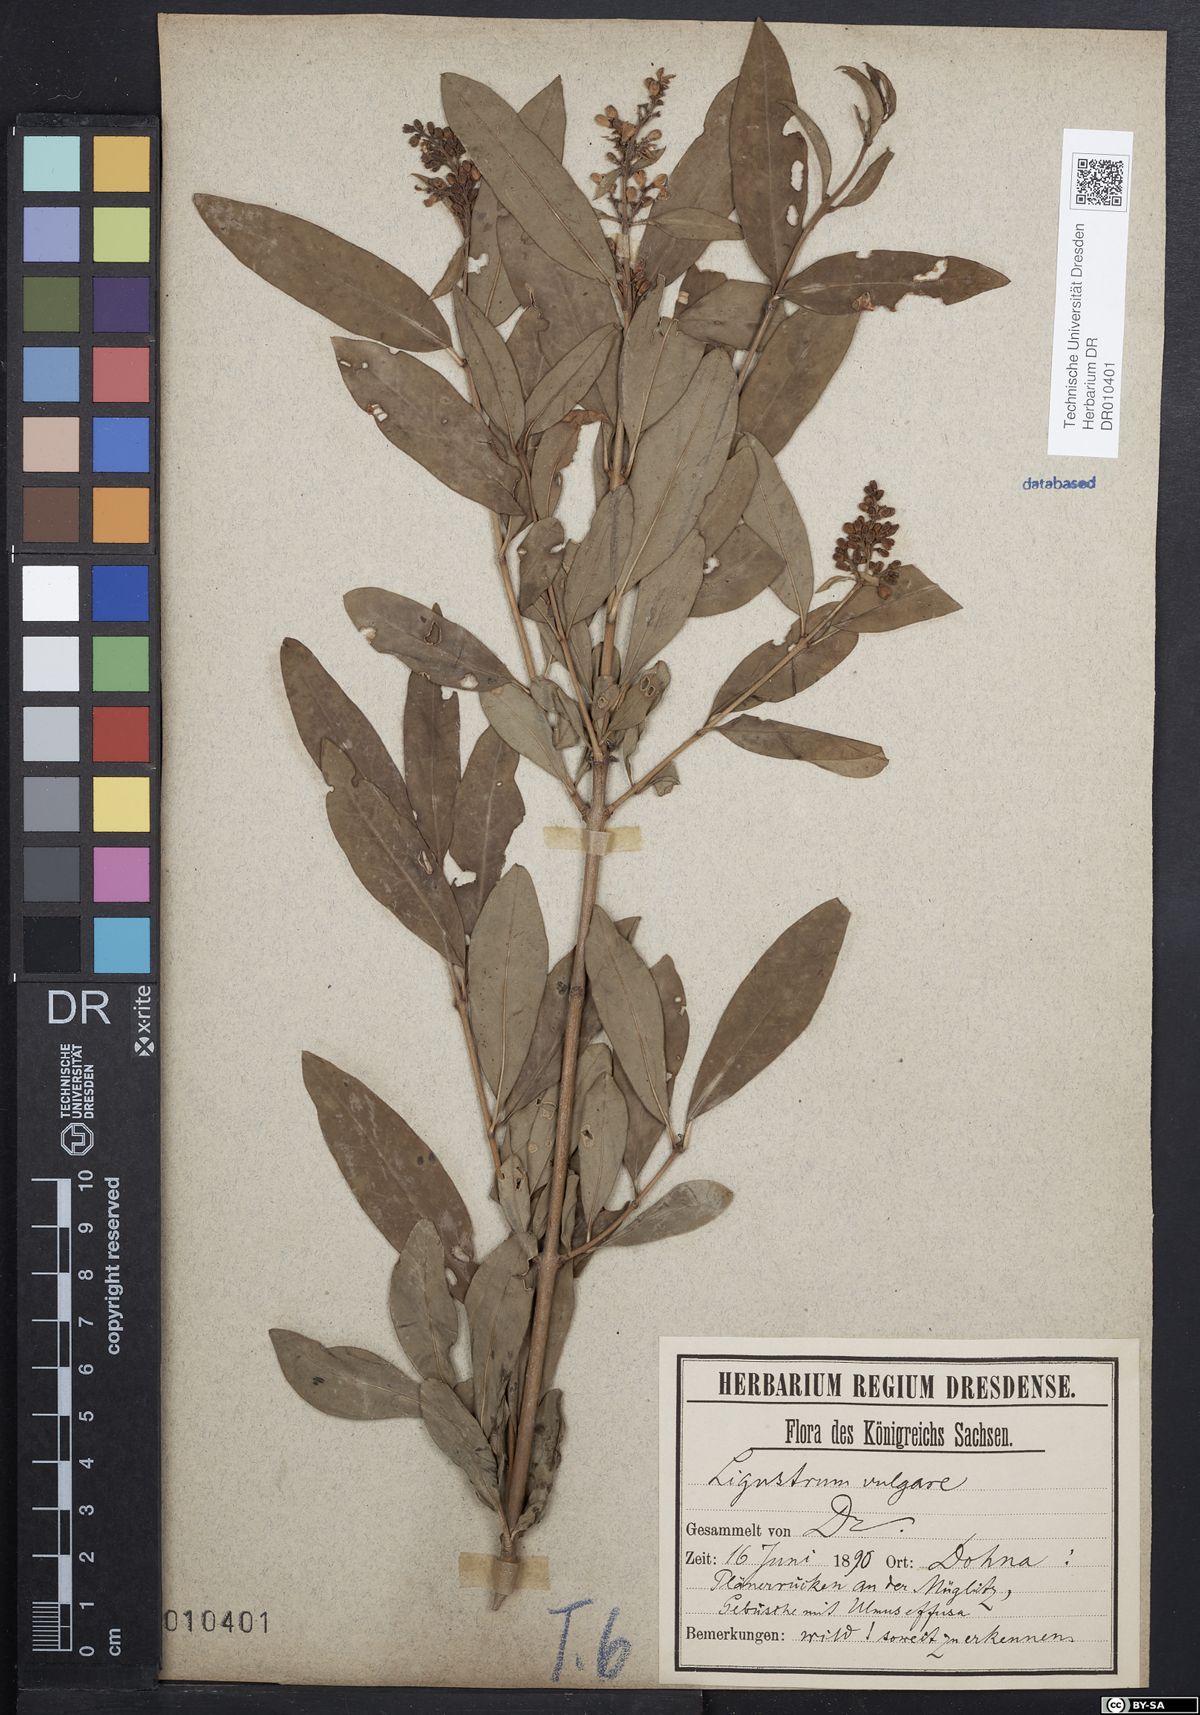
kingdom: Plantae
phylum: Tracheophyta
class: Magnoliopsida
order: Lamiales
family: Oleaceae
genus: Ligustrum
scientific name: Ligustrum vulgare
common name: Wild privet
